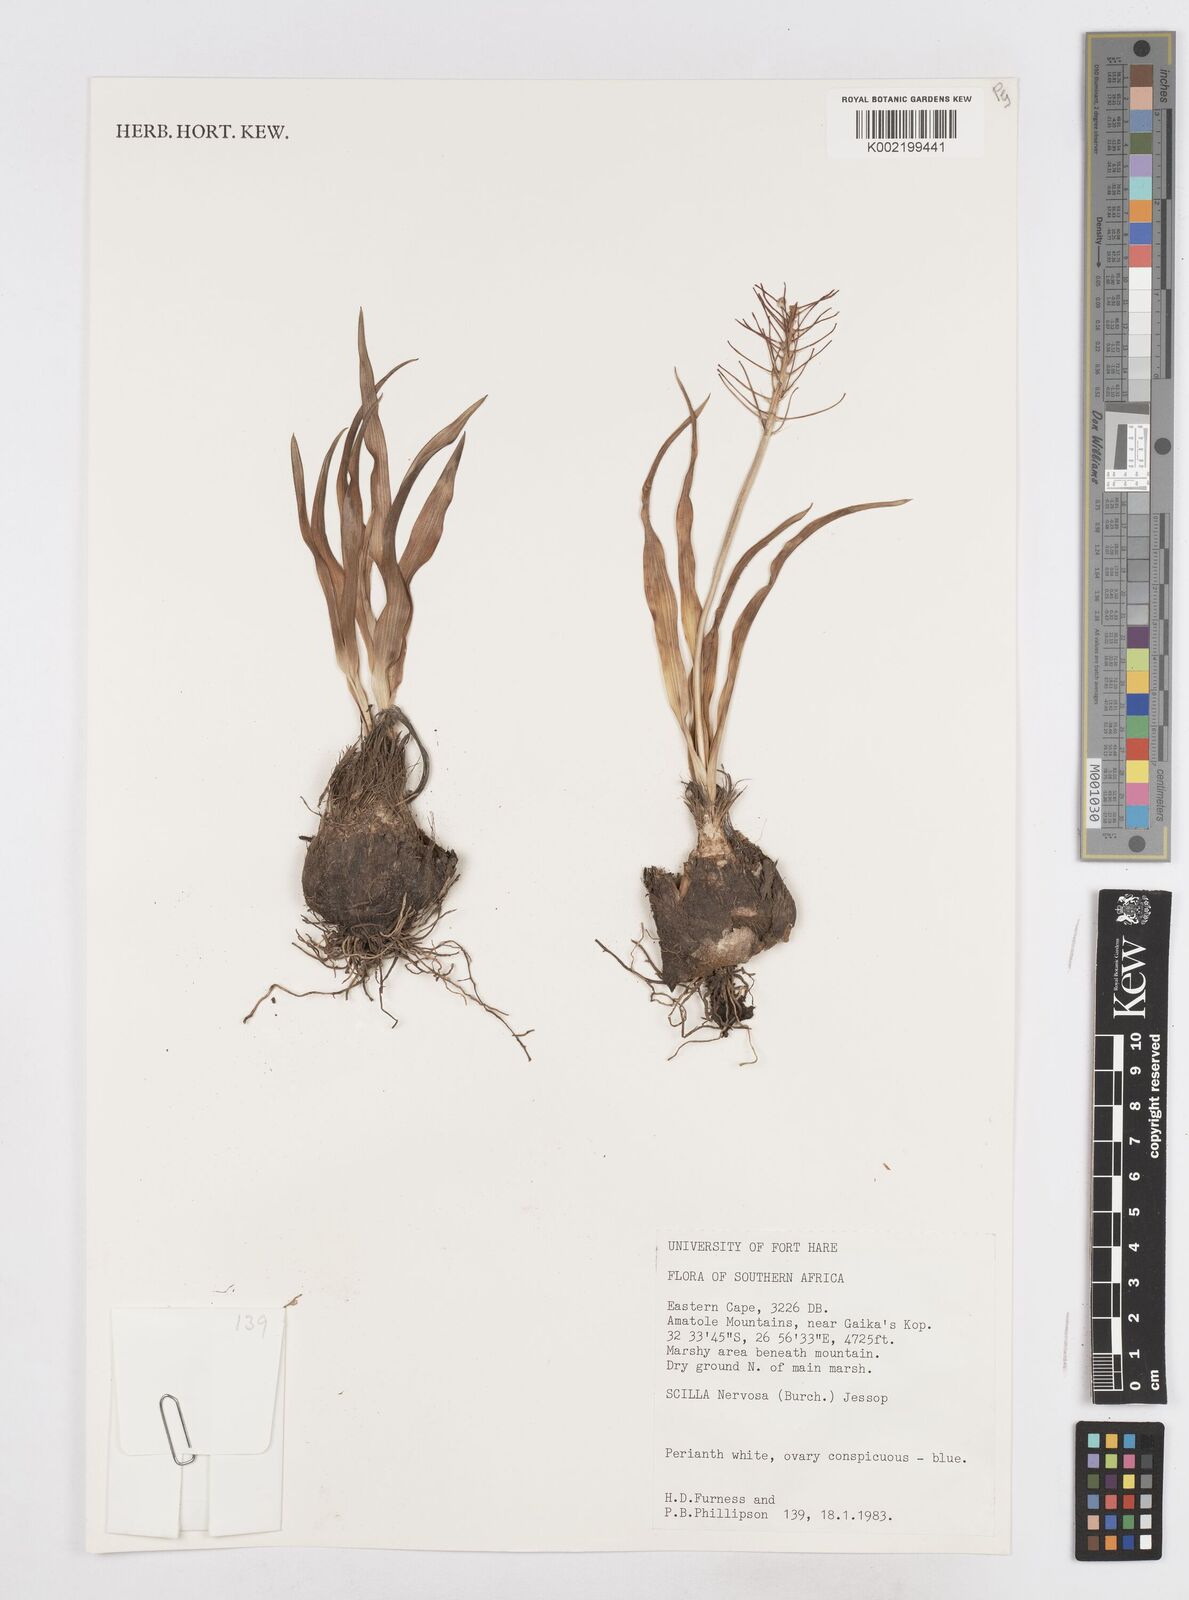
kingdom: Plantae
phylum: Tracheophyta
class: Liliopsida
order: Asparagales
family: Asparagaceae
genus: Schizocarphus
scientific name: Schizocarphus nervosus
